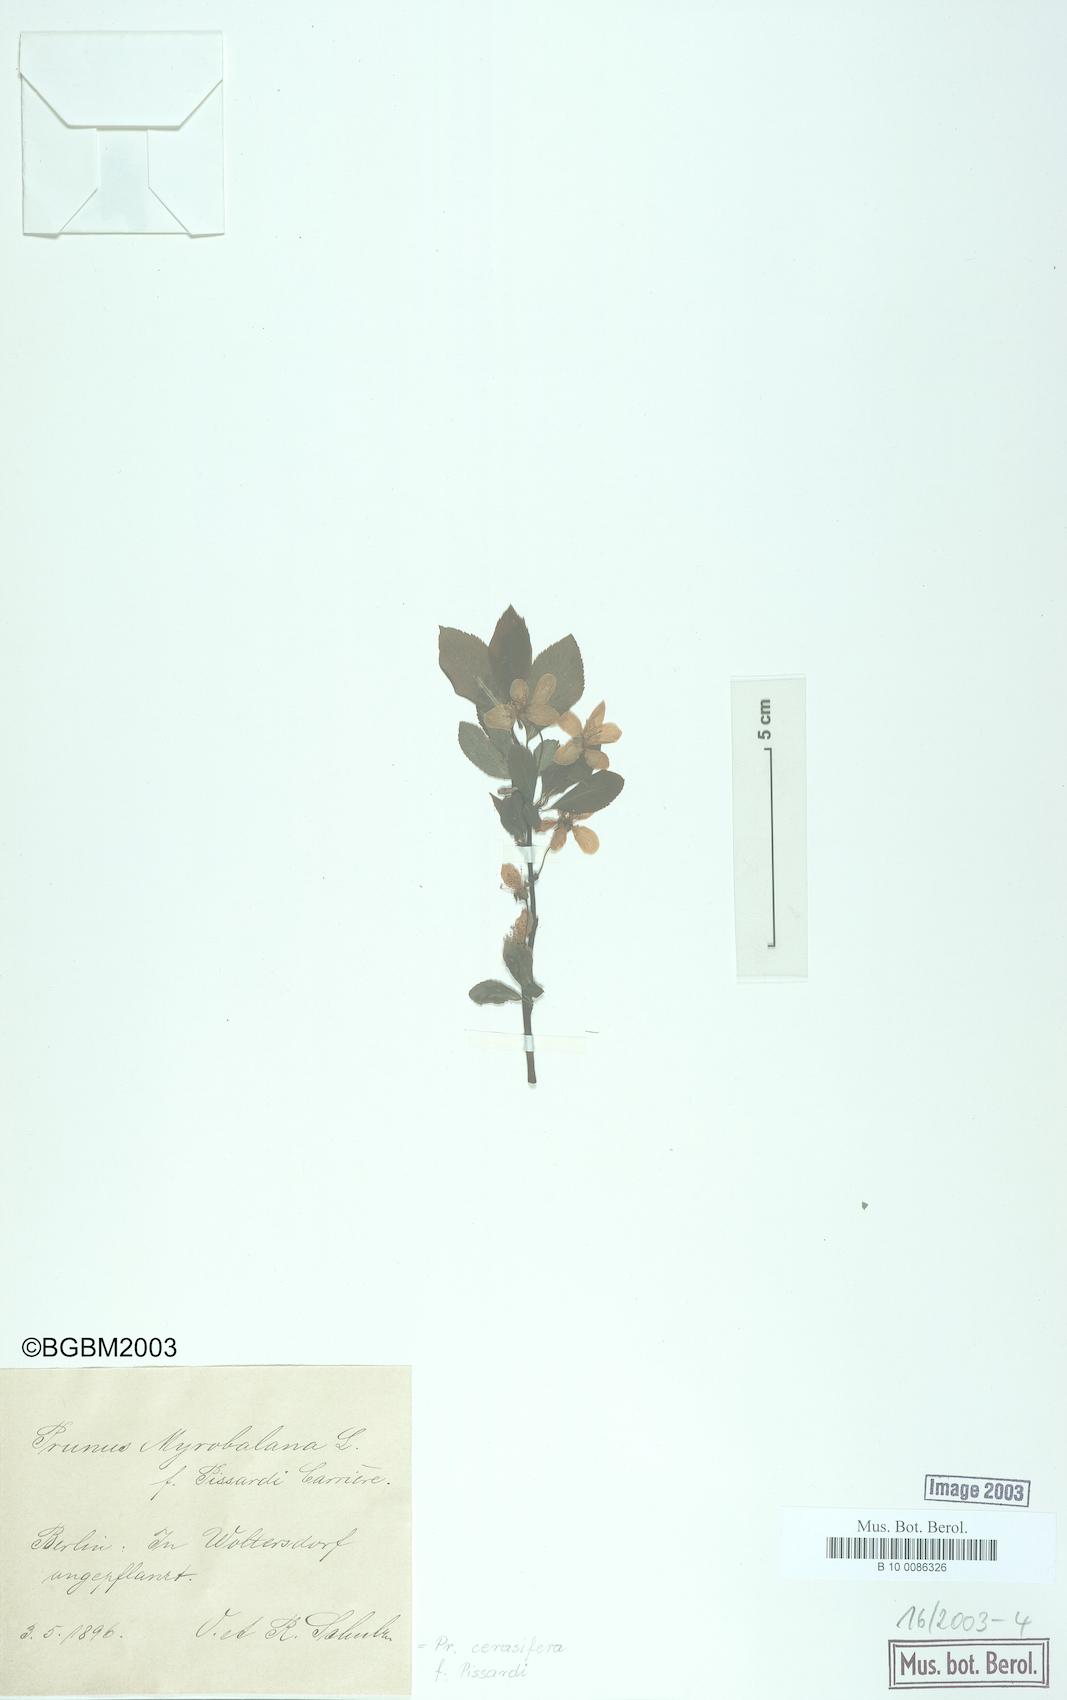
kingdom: Plantae
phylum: Tracheophyta
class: Magnoliopsida
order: Rosales
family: Rosaceae
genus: Prunus
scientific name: Prunus cerasifera
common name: Cherry plum
